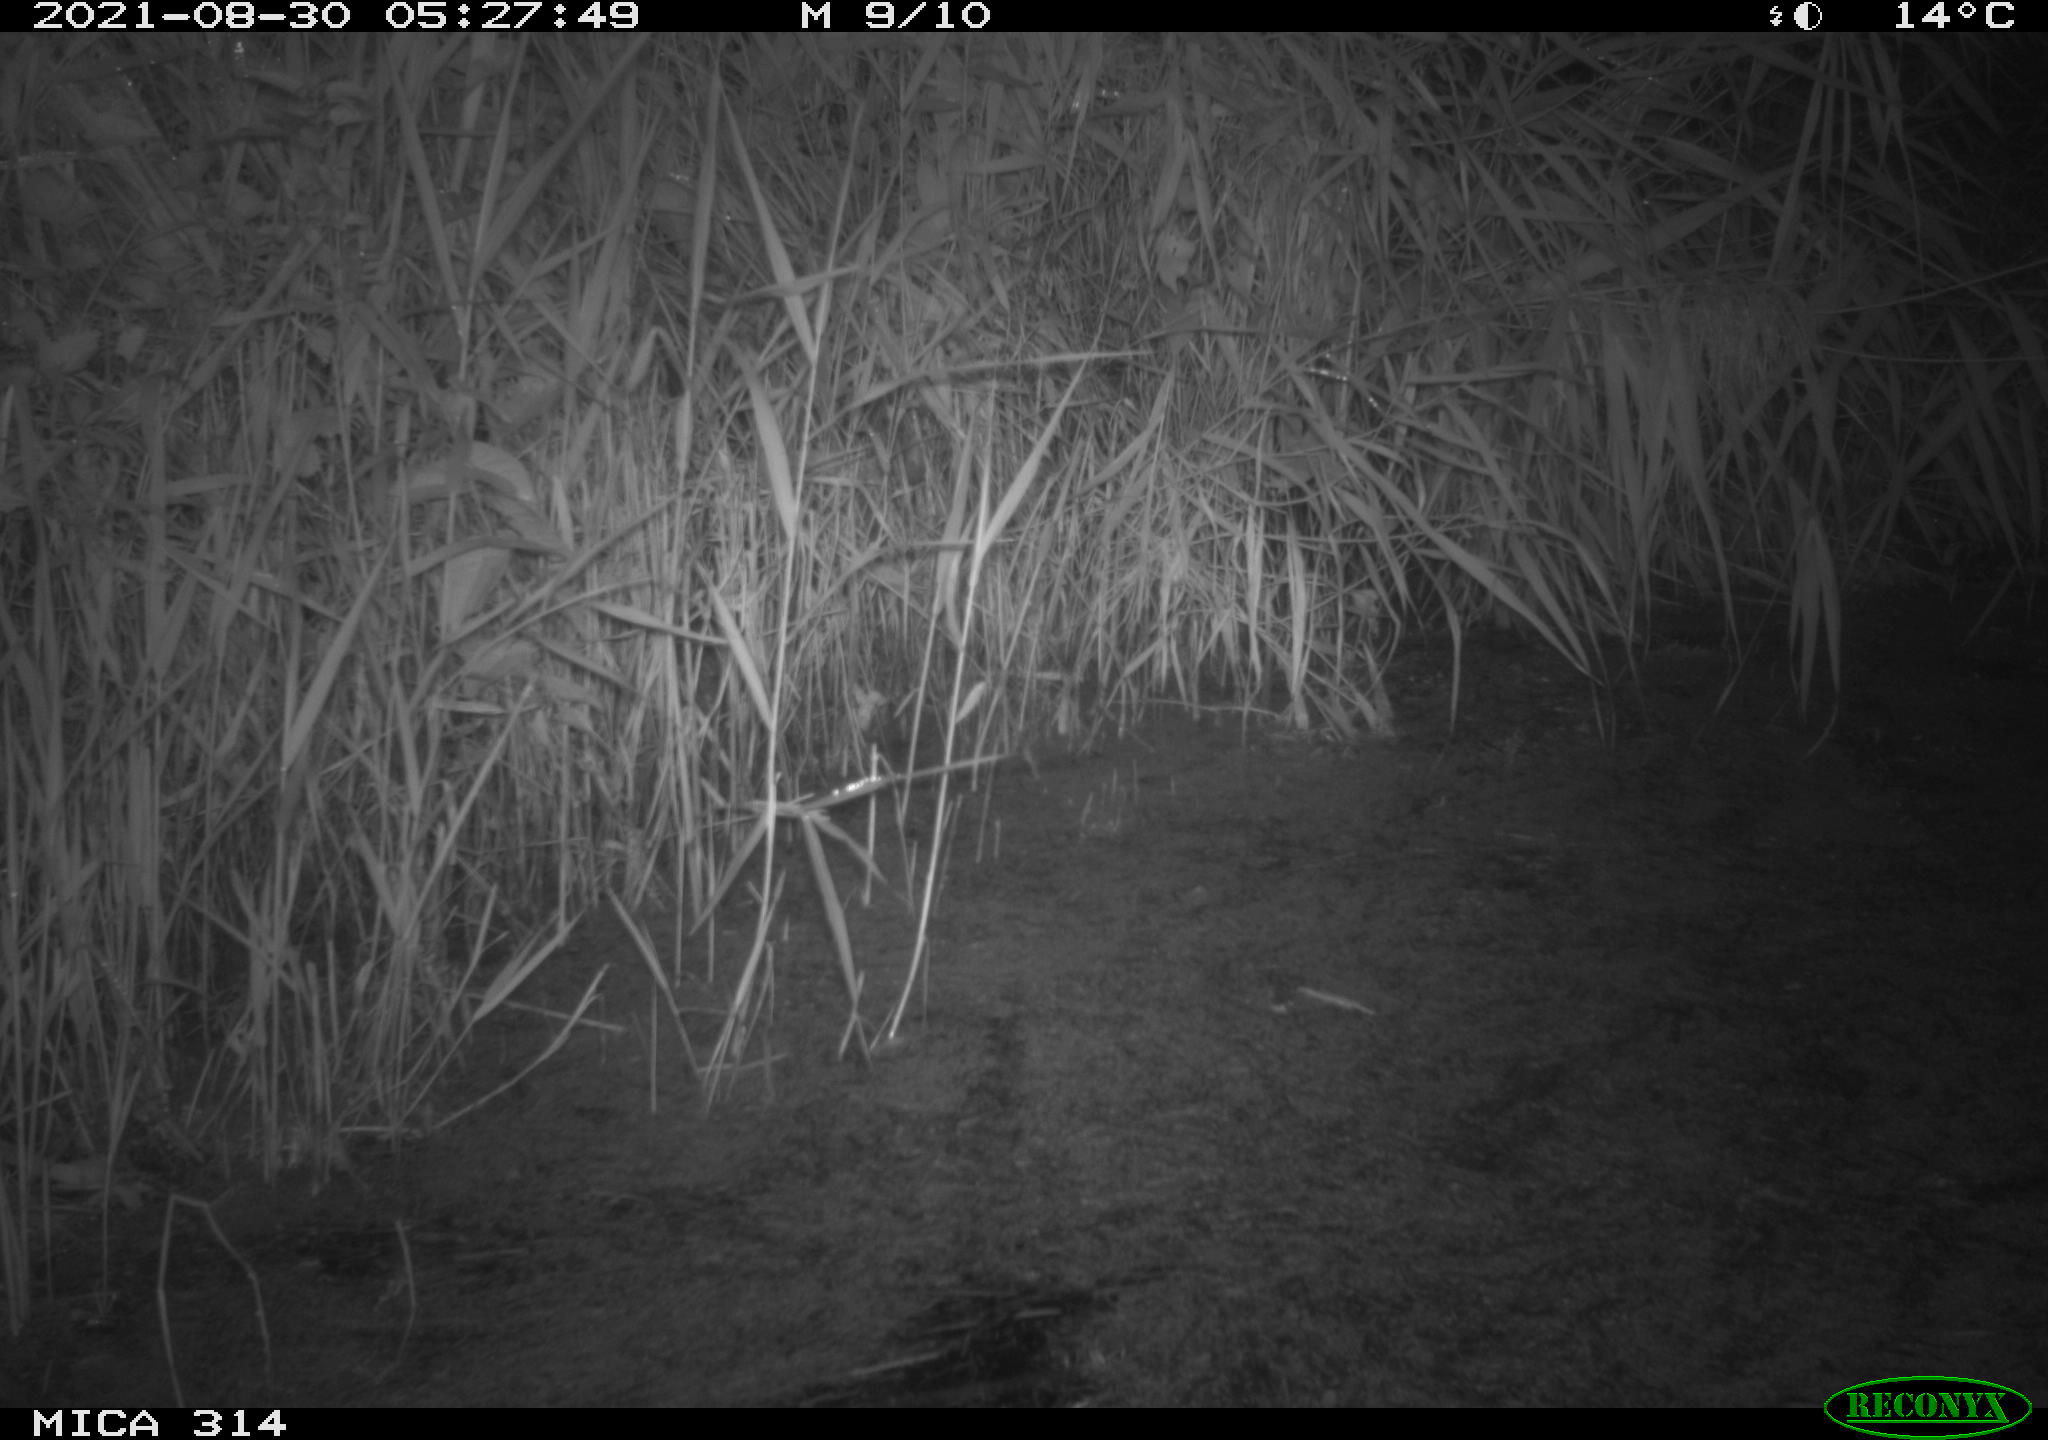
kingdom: Animalia
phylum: Chordata
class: Mammalia
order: Rodentia
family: Muridae
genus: Rattus
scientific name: Rattus norvegicus
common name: Brown rat
